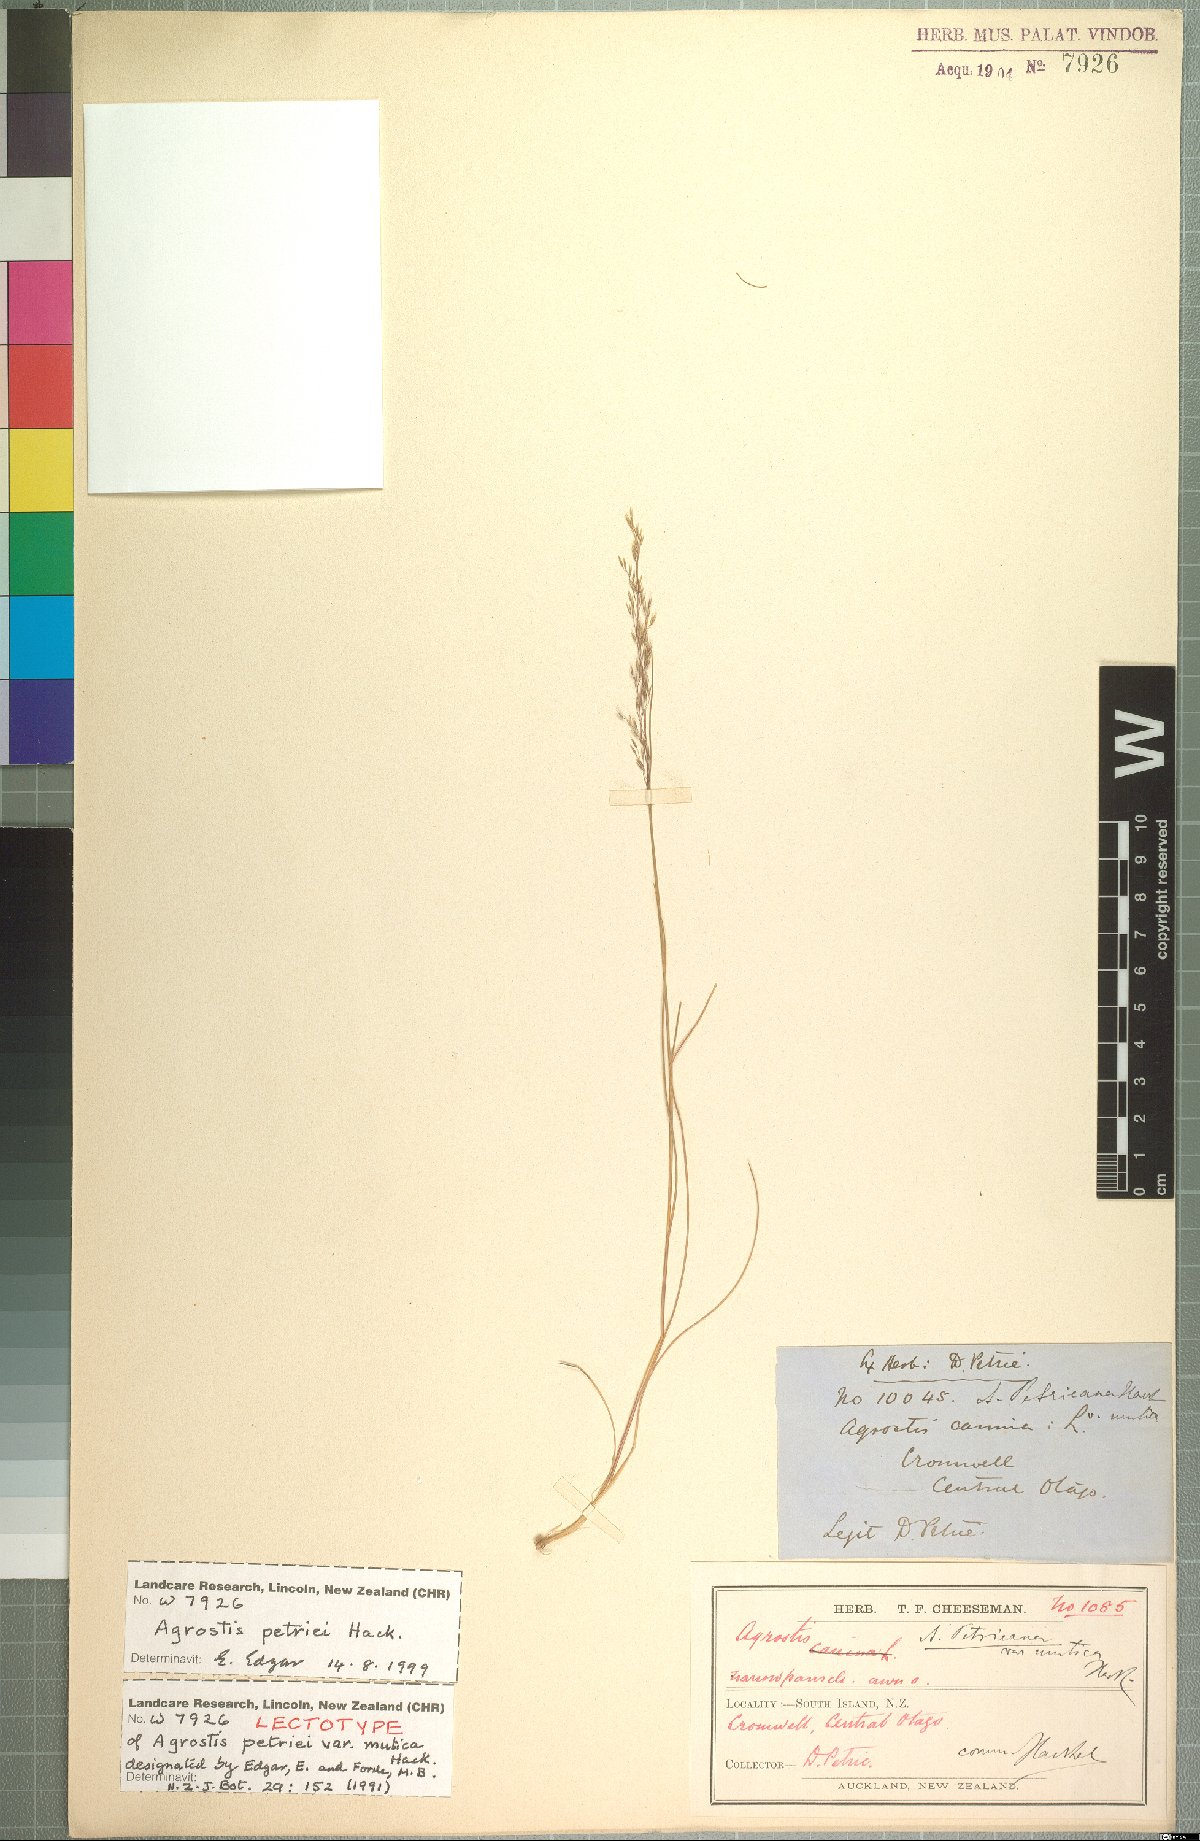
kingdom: Plantae
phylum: Tracheophyta
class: Liliopsida
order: Poales
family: Poaceae
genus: Agrostis
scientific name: Agrostis petriei
